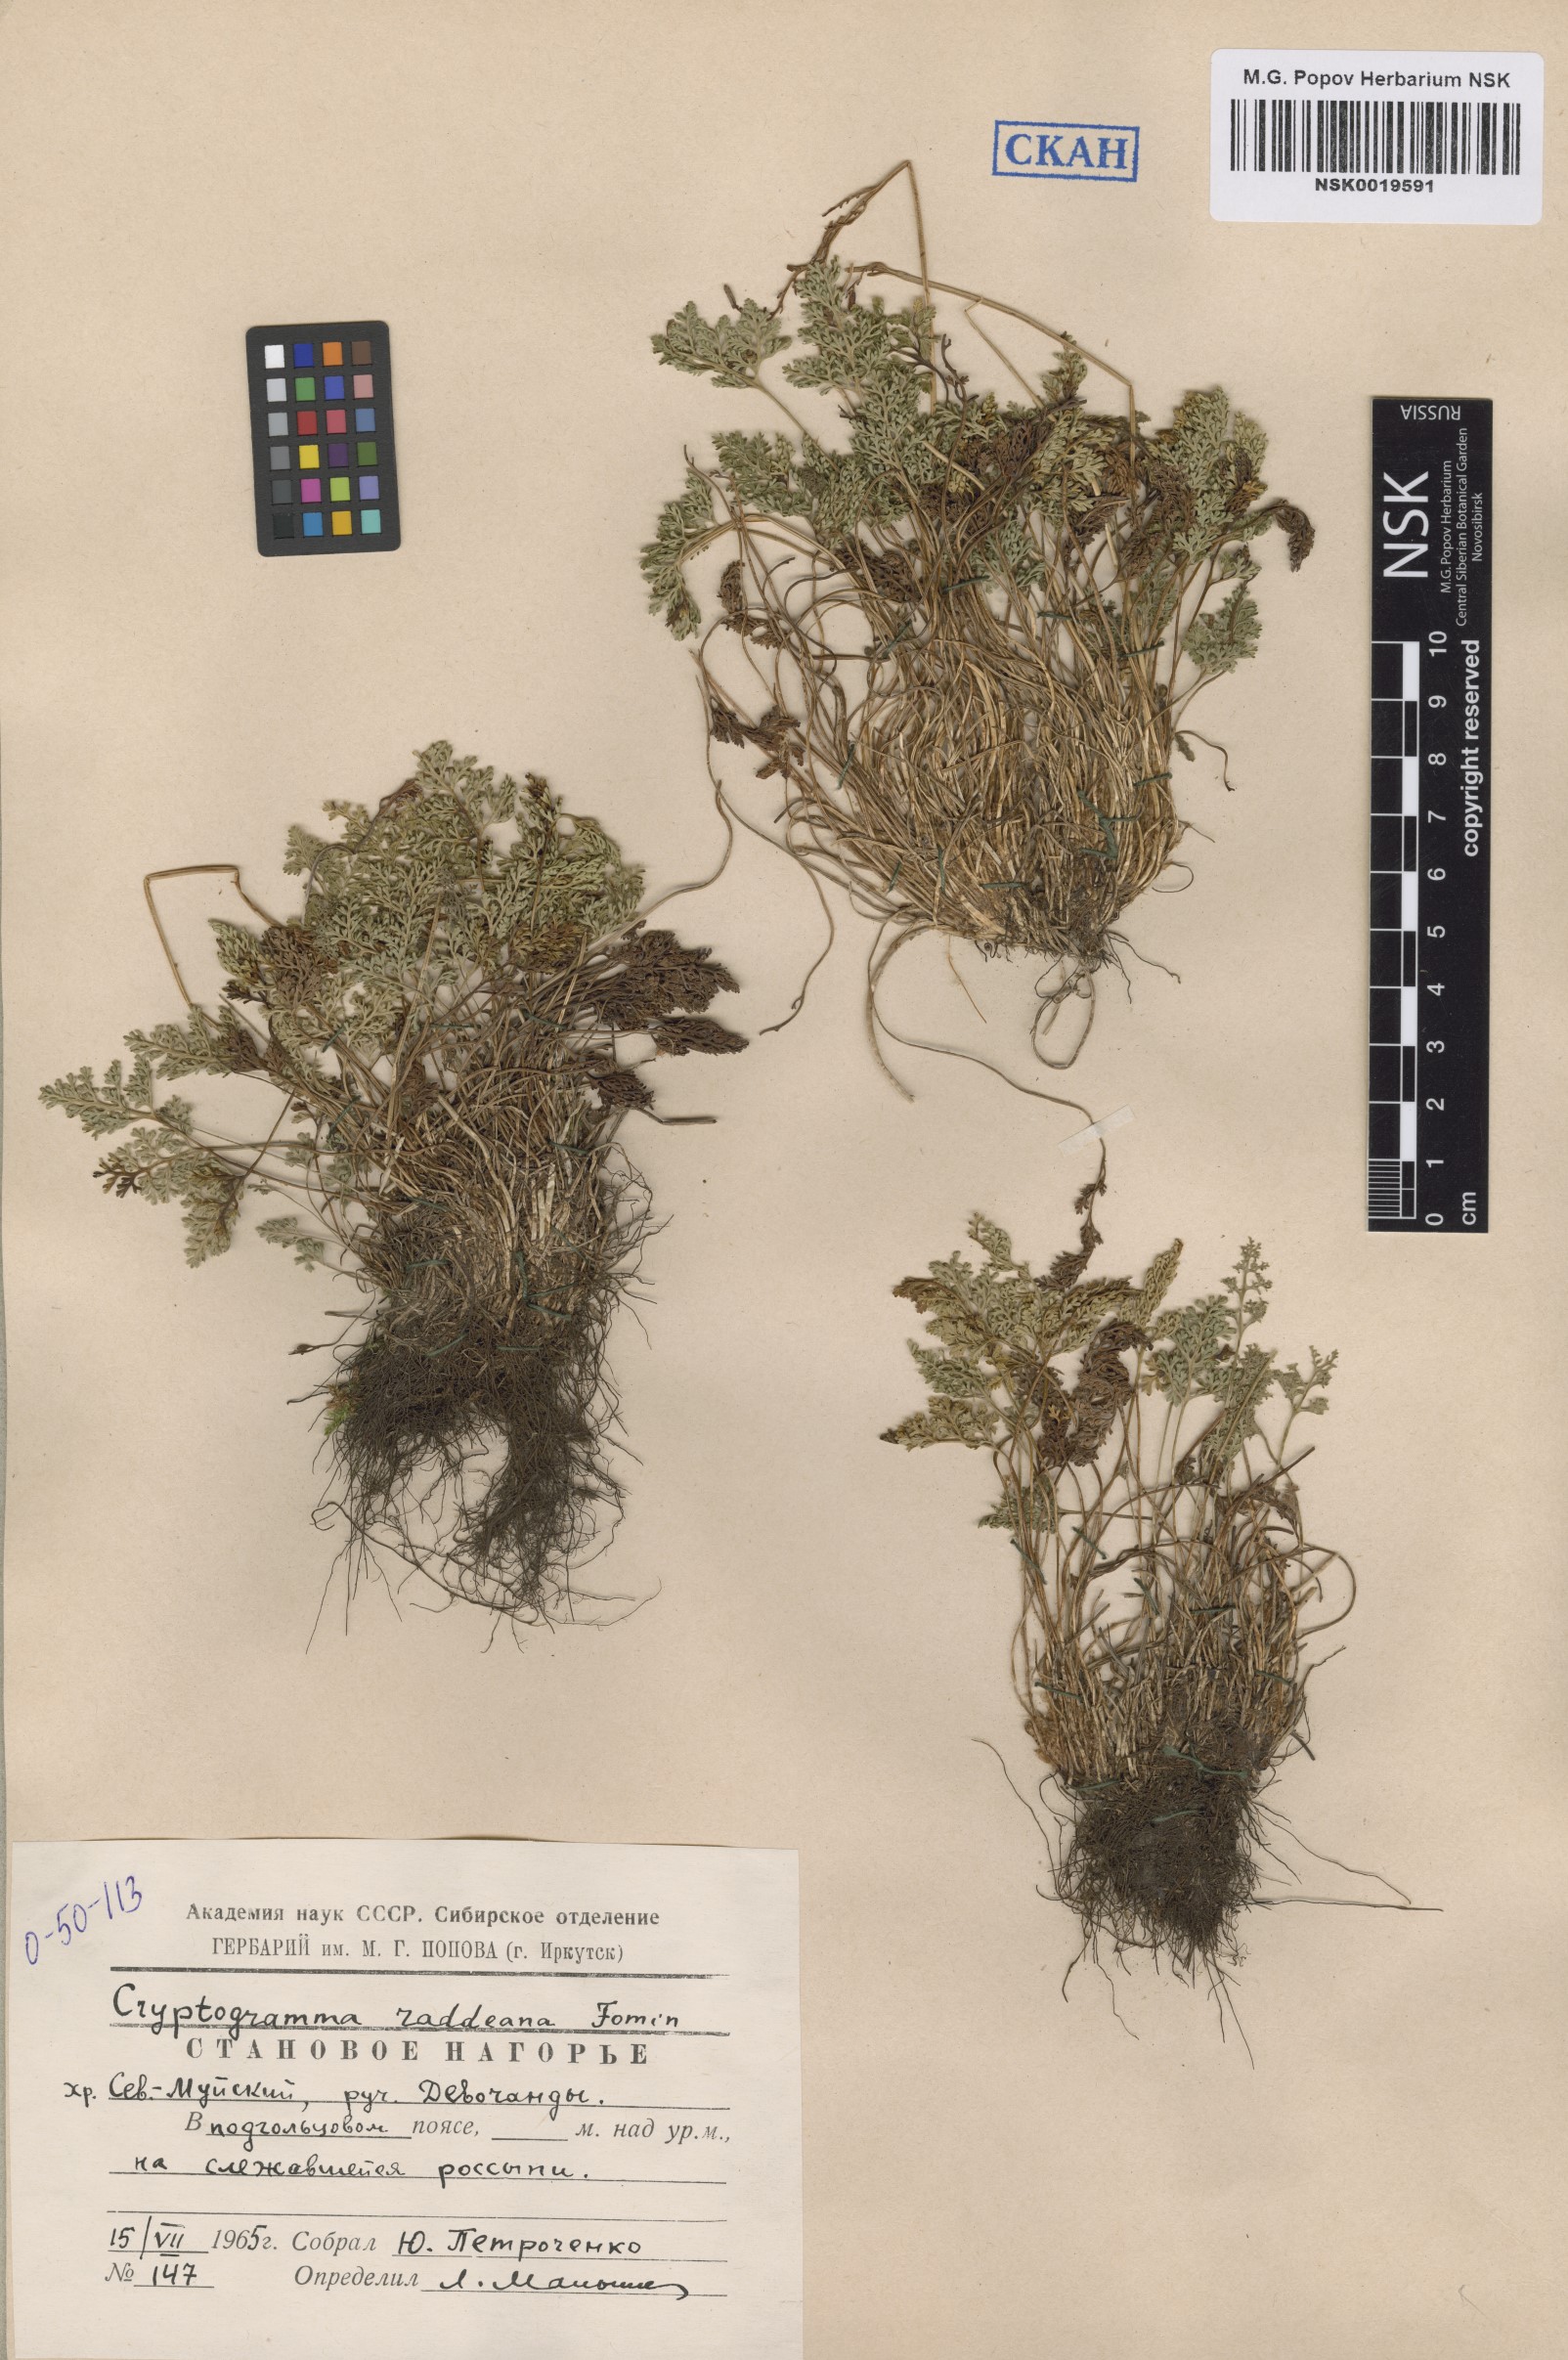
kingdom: Plantae
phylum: Tracheophyta
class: Polypodiopsida
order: Polypodiales
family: Pteridaceae
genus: Cryptogramma
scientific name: Cryptogramma brunoniana
